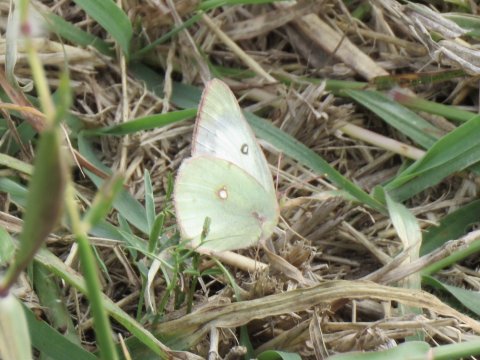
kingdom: Animalia
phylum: Arthropoda
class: Insecta
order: Lepidoptera
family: Pieridae
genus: Colias
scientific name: Colias eurytheme
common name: Orange Sulphur
